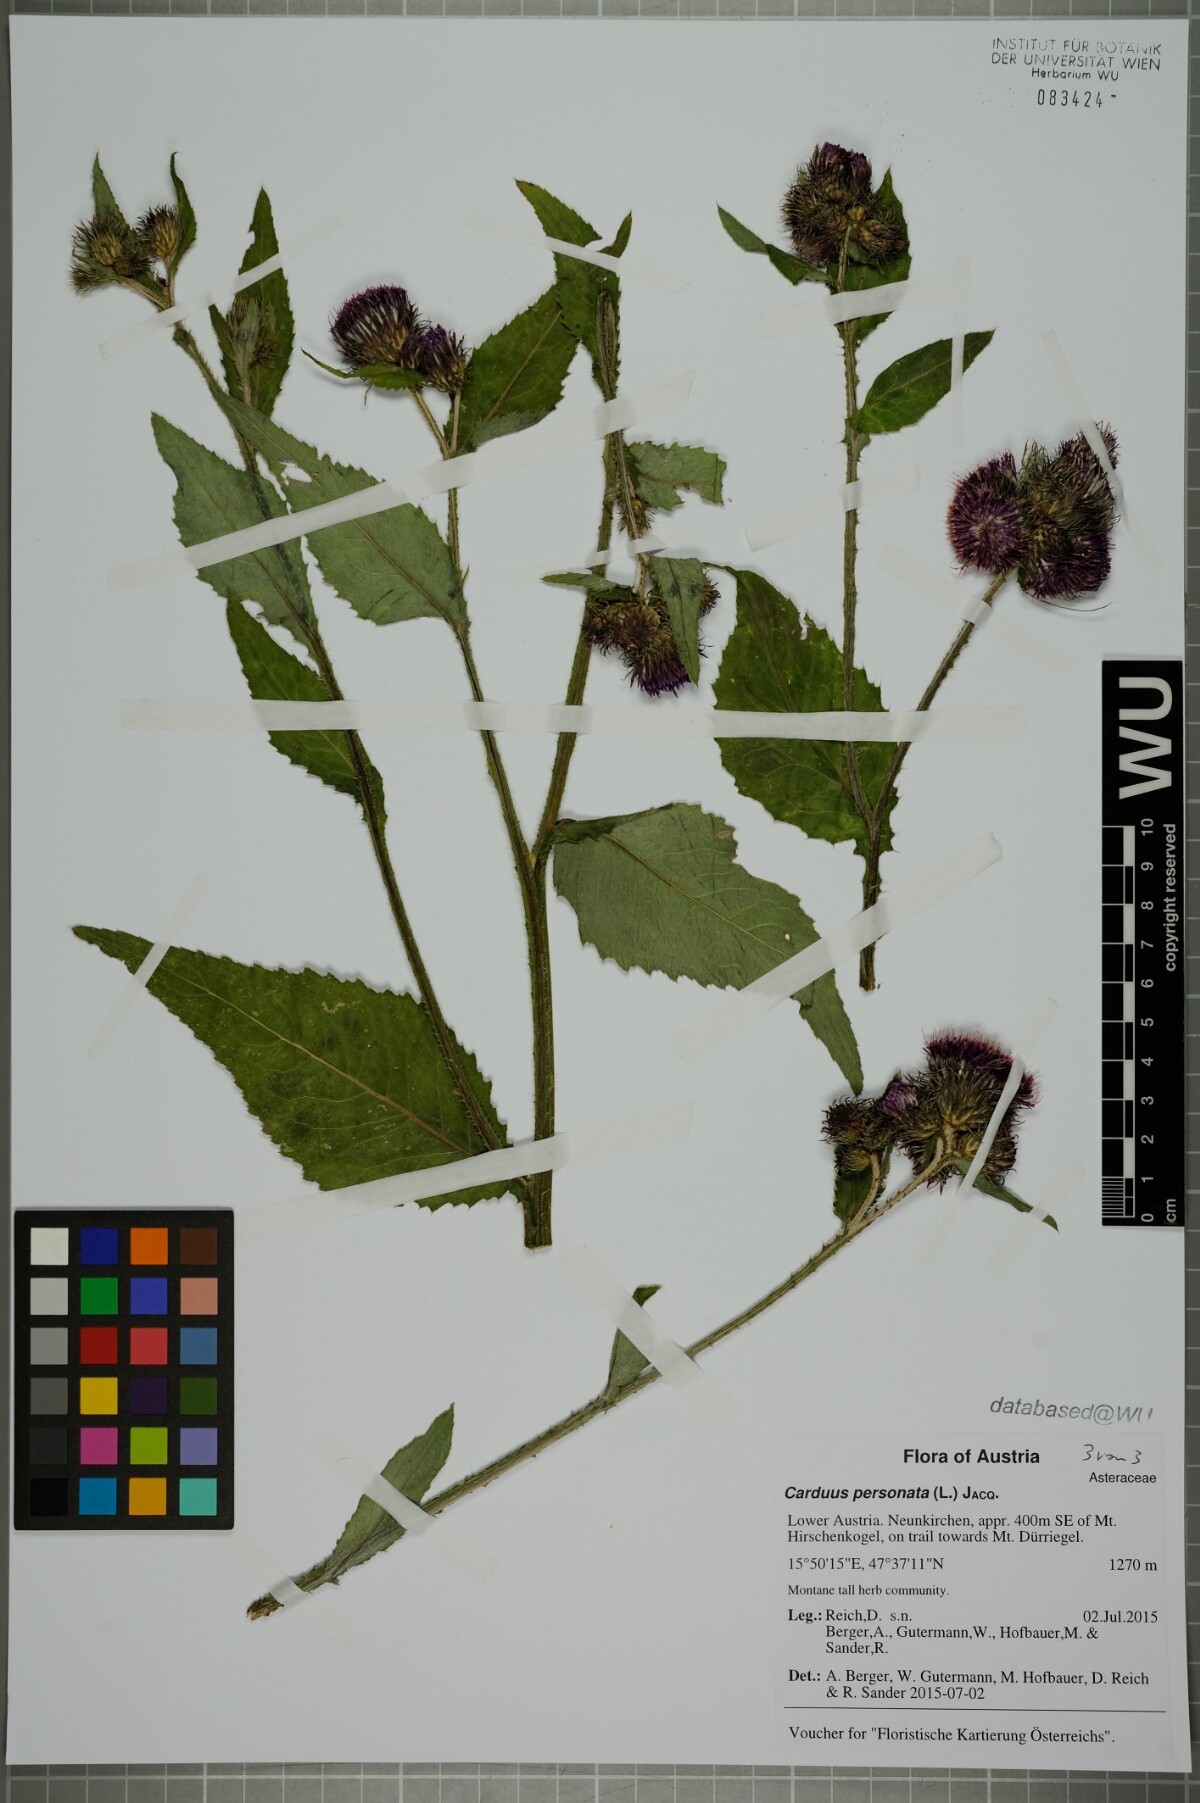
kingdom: Plantae
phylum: Tracheophyta
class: Magnoliopsida
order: Asterales
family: Asteraceae
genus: Carduus
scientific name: Carduus personata
